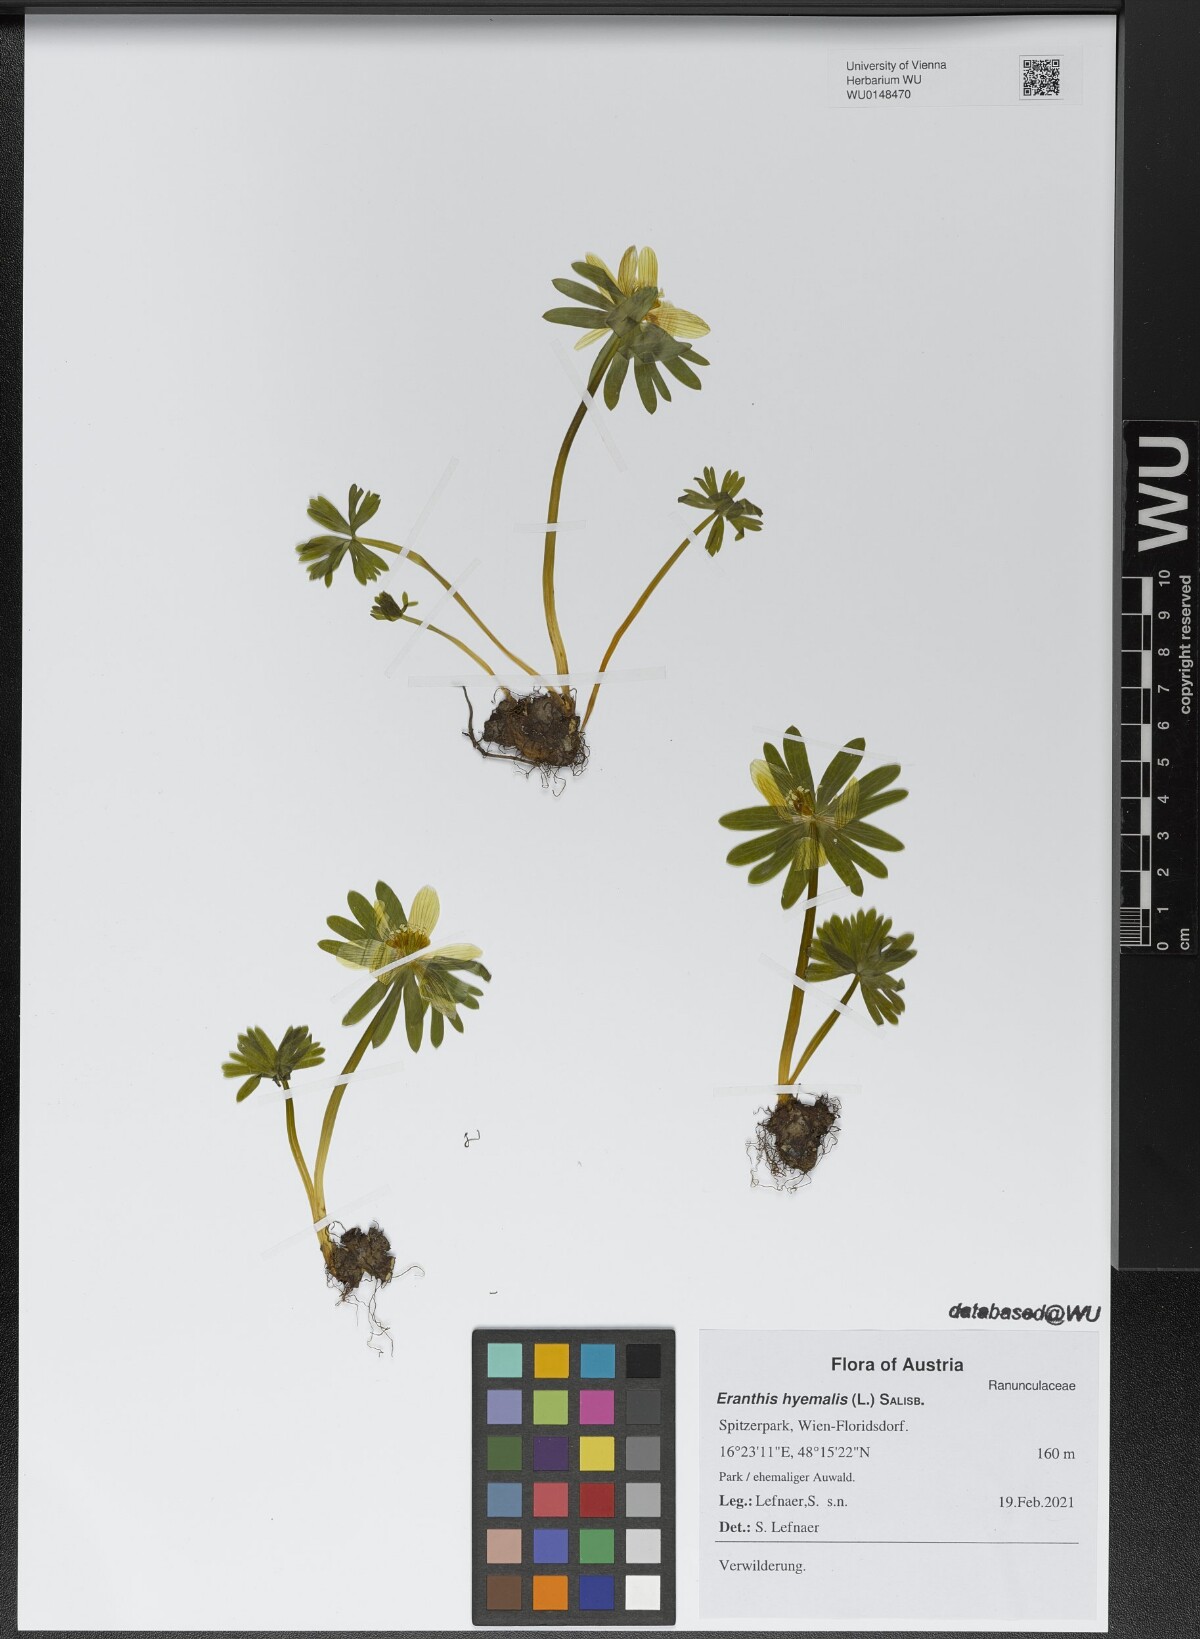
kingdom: Plantae
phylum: Tracheophyta
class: Magnoliopsida
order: Ranunculales
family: Ranunculaceae
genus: Eranthis
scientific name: Eranthis hyemalis
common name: Winter aconite
